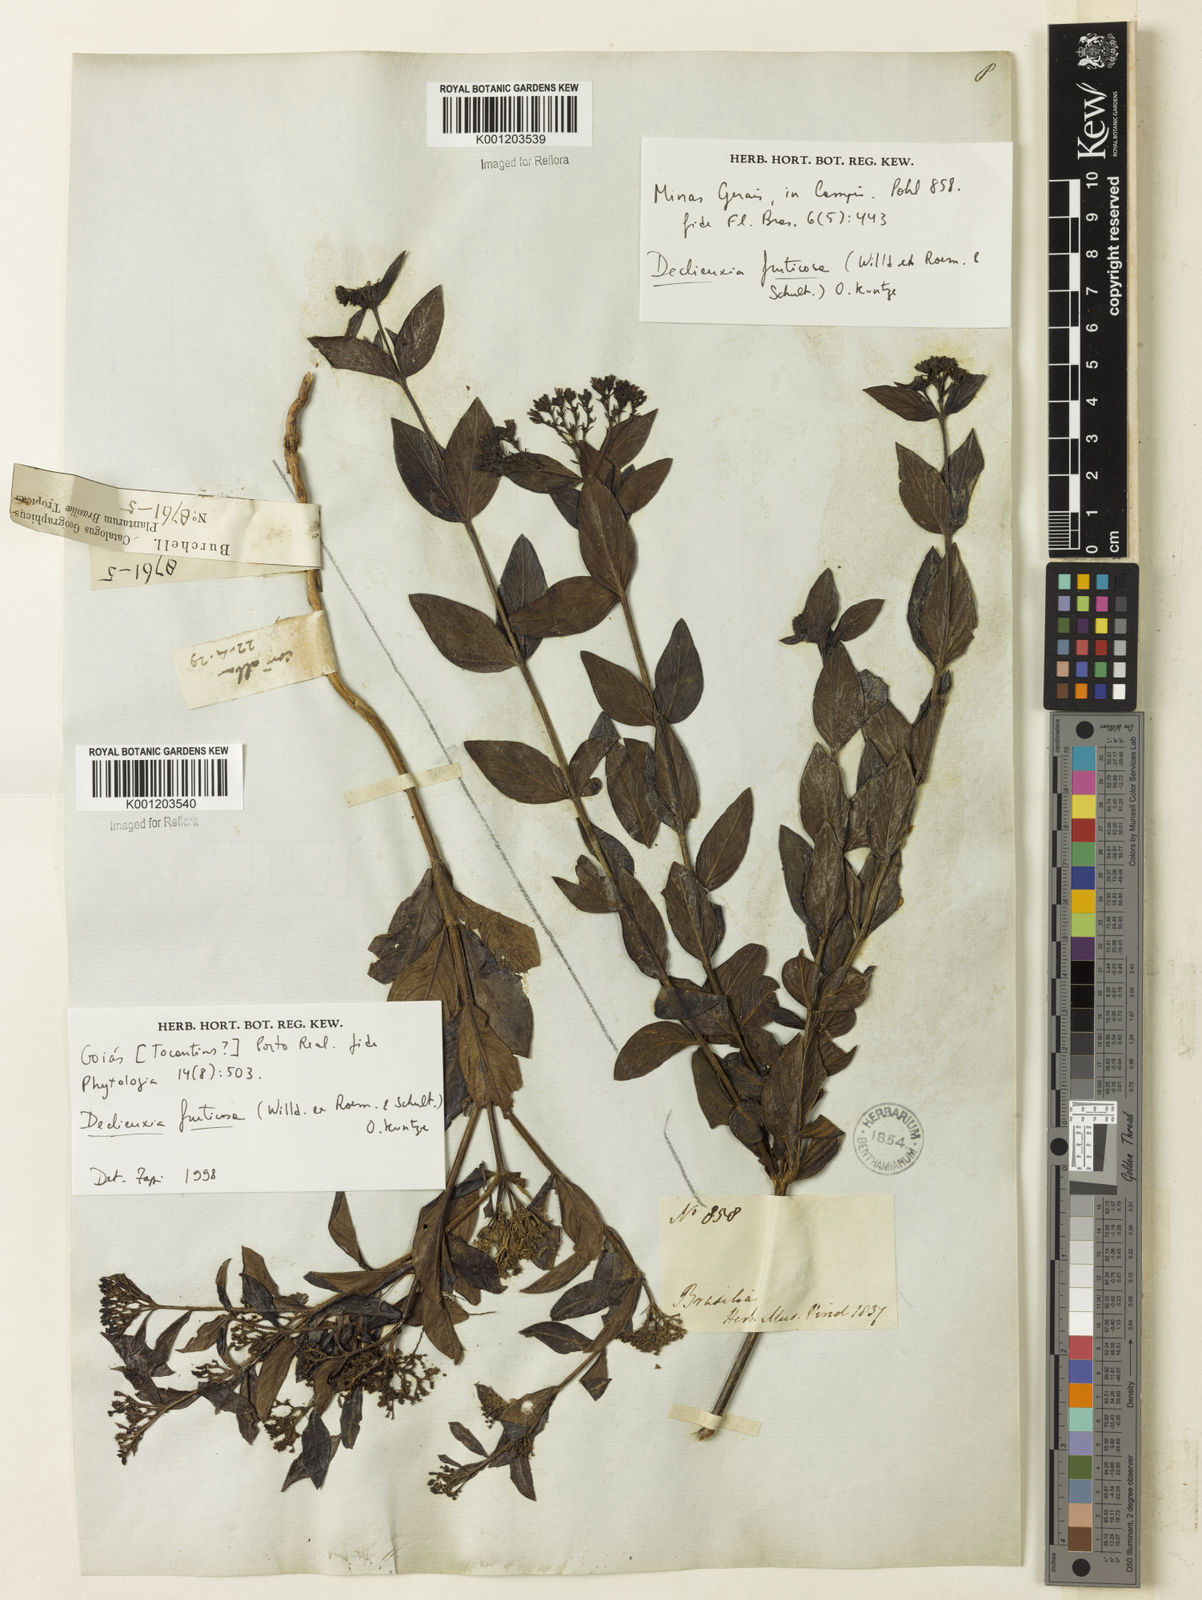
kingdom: Plantae
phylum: Tracheophyta
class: Magnoliopsida
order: Gentianales
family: Rubiaceae
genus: Declieuxia
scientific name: Declieuxia fruticosa
